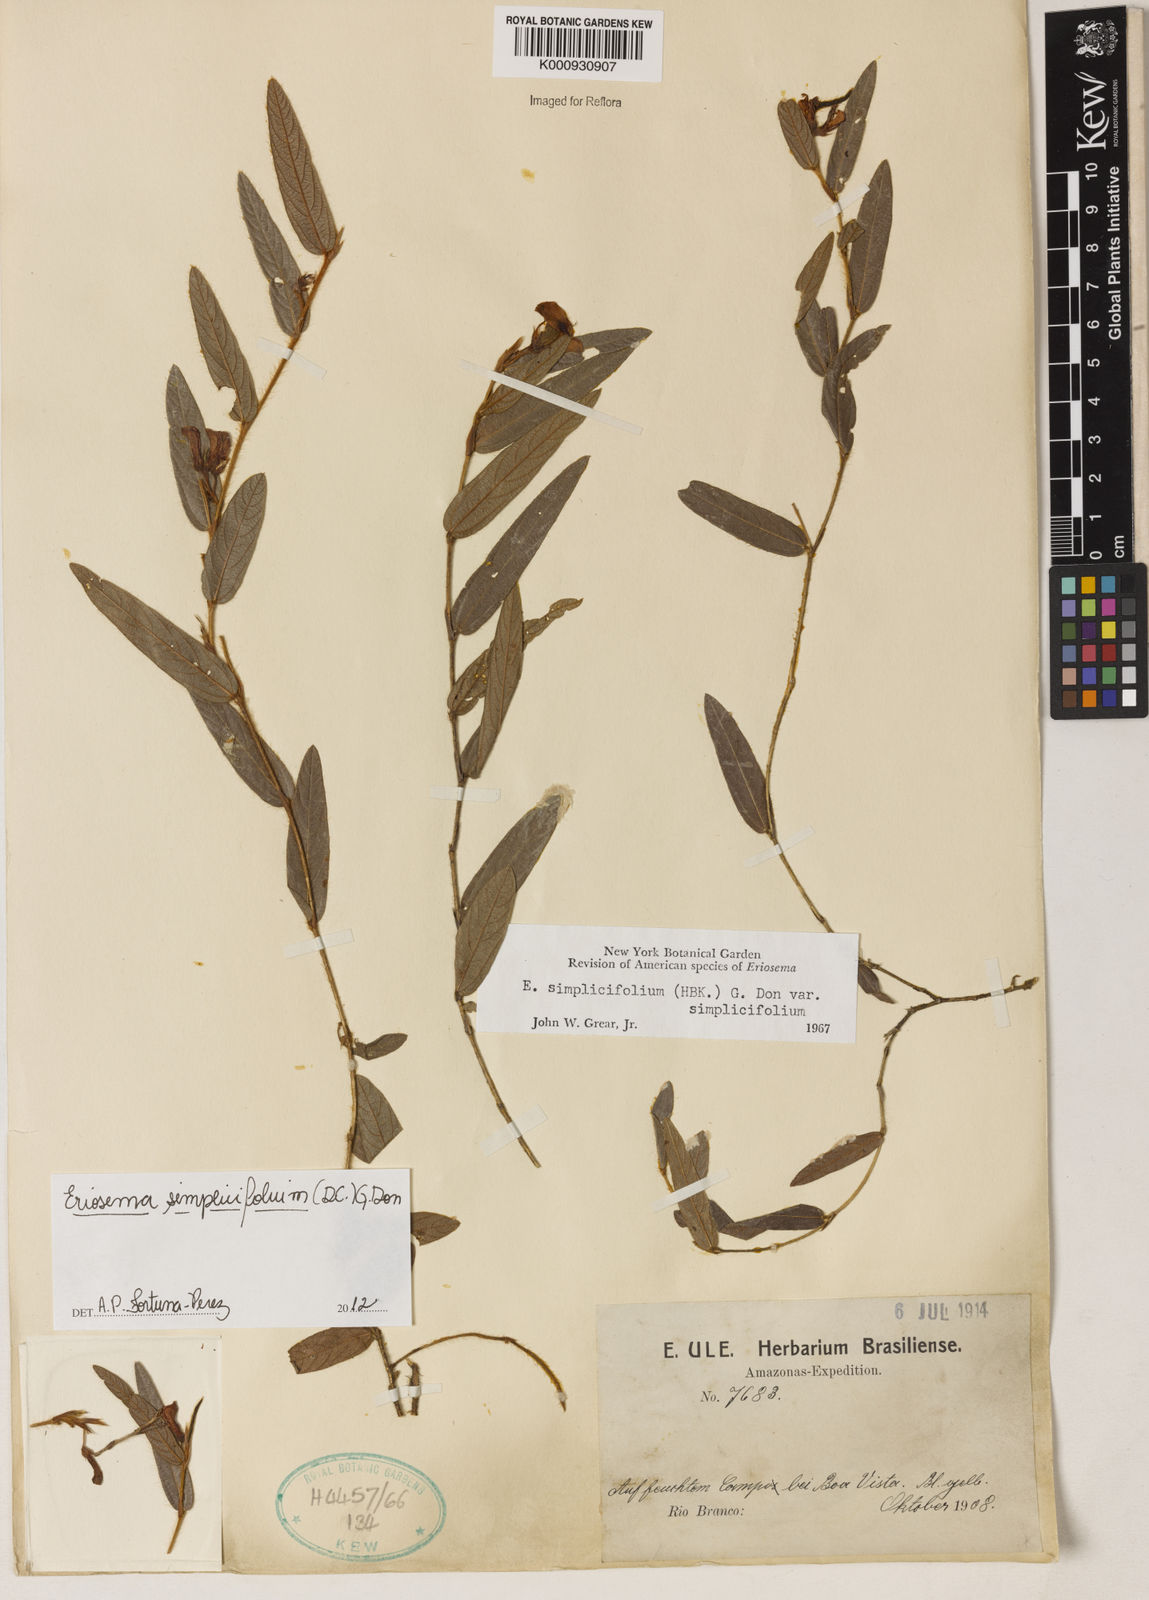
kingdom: Plantae
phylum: Tracheophyta
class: Magnoliopsida
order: Fabales
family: Fabaceae
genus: Eriosema
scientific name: Eriosema simplicifolium
